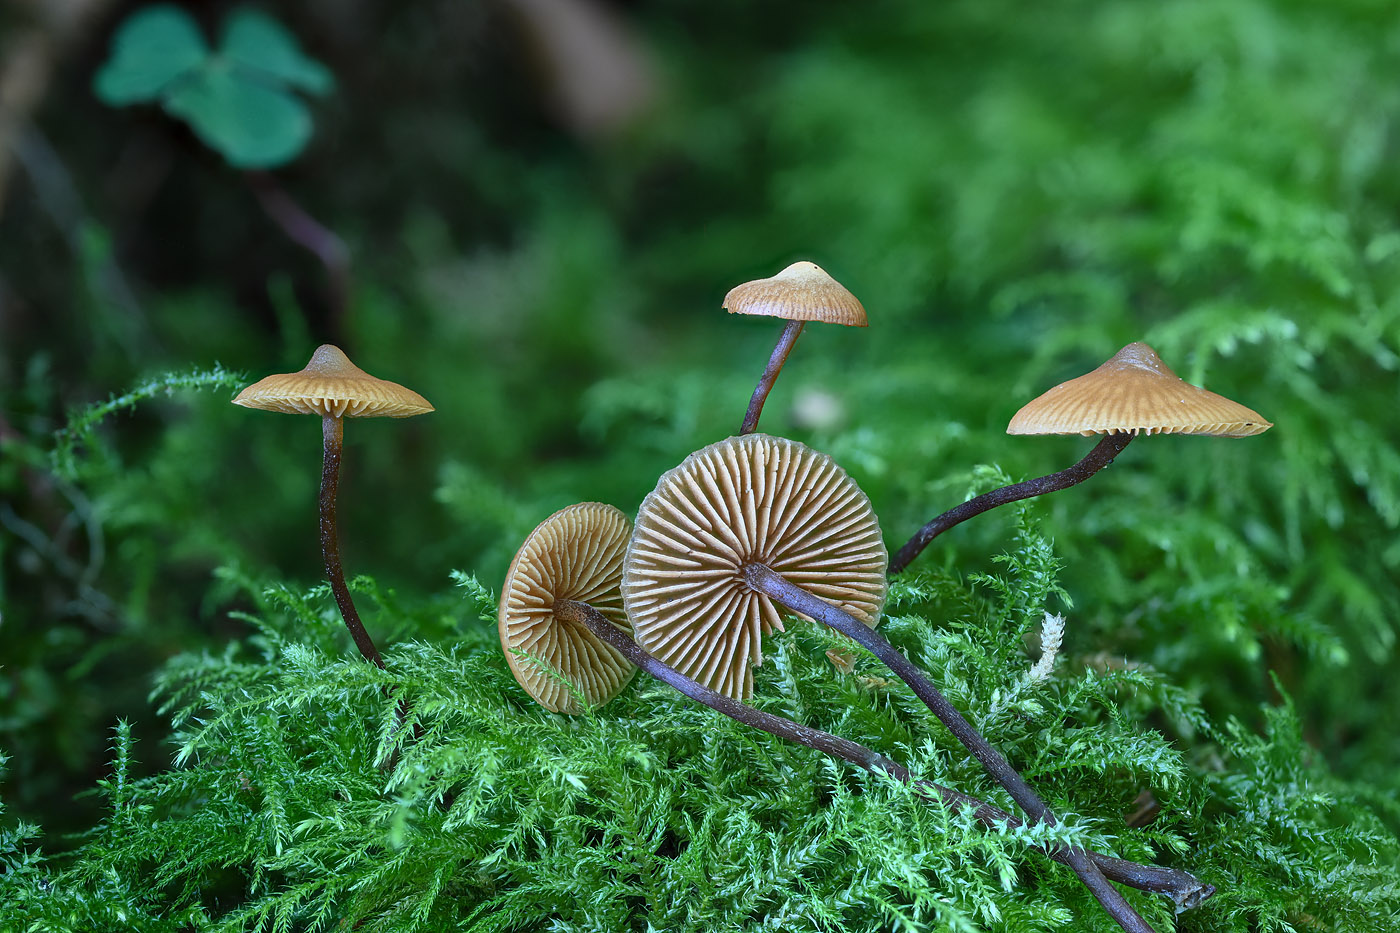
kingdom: Fungi
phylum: Basidiomycota
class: Agaricomycetes
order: Agaricales
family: Hymenogastraceae
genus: Galerina
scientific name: Galerina triscopa
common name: spidspuklet hjelmhat
